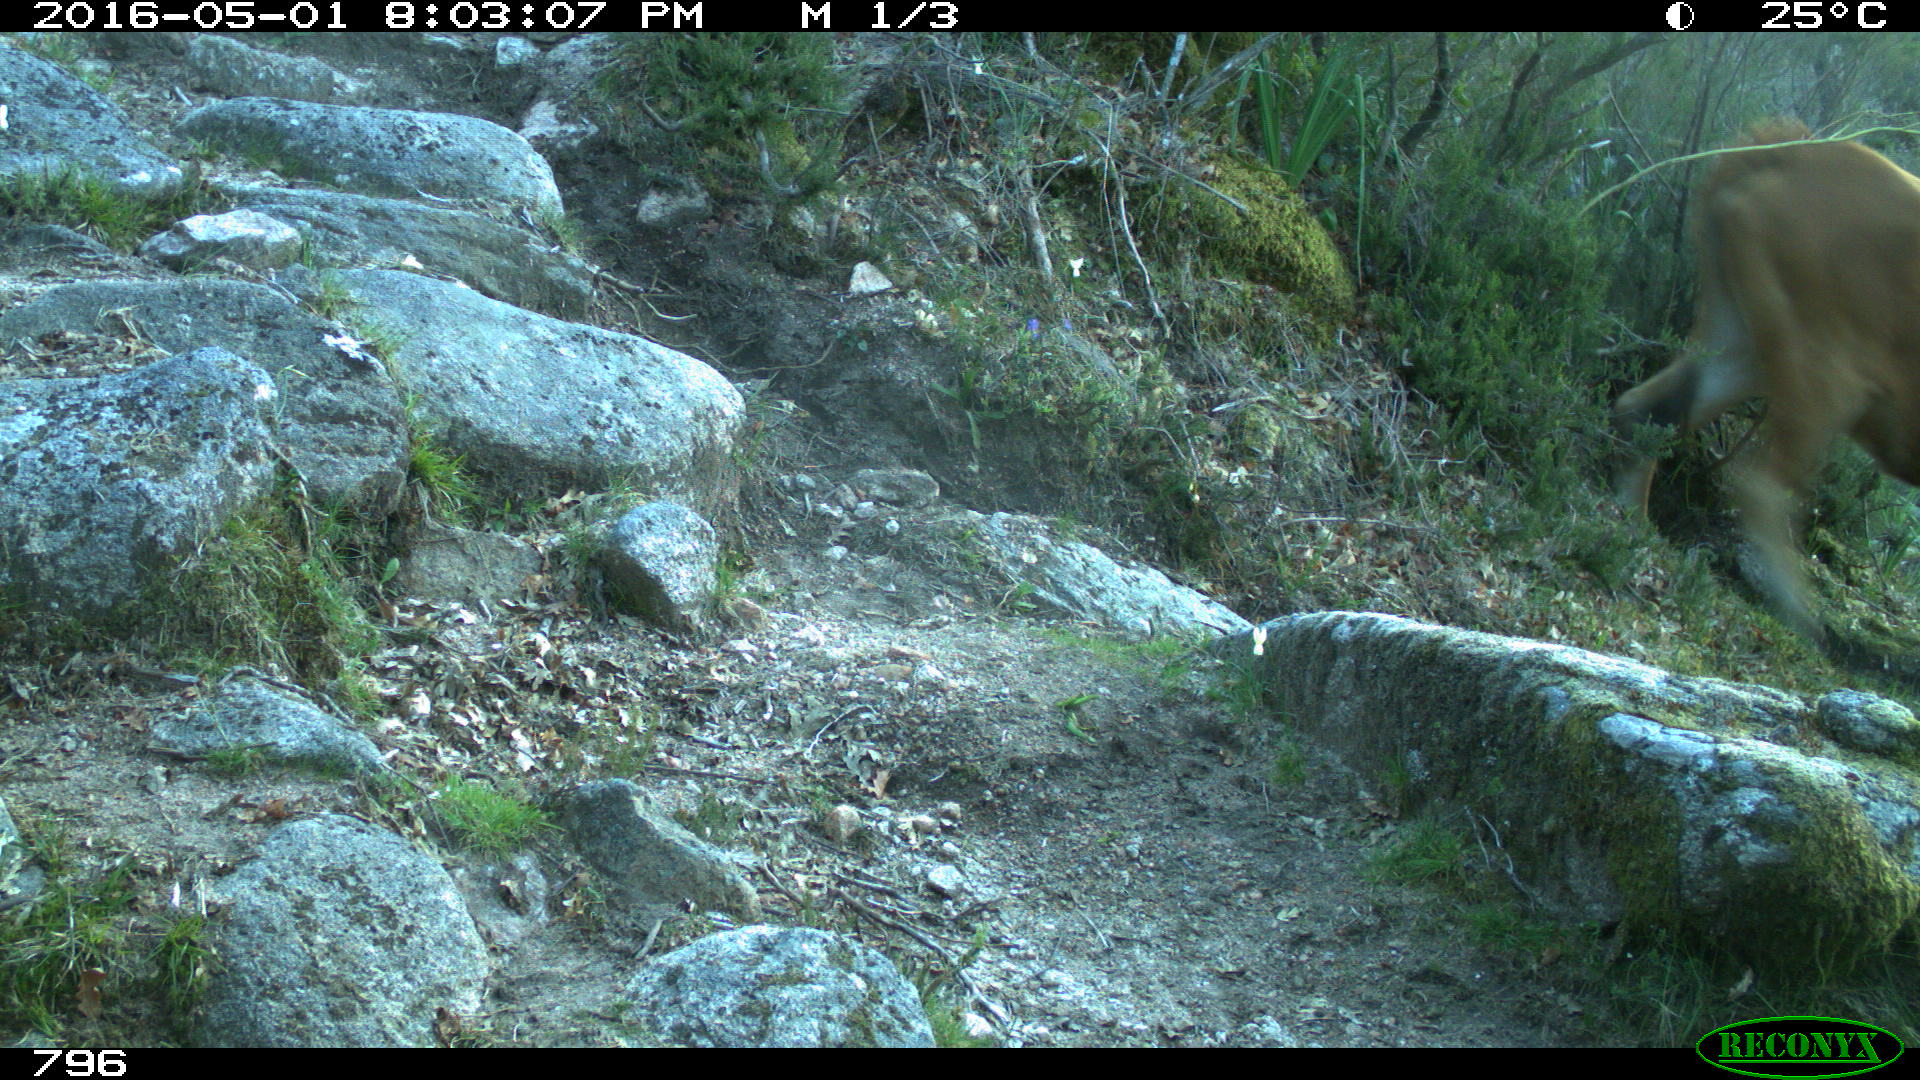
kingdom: Animalia
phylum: Chordata
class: Mammalia
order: Artiodactyla
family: Bovidae
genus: Bos
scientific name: Bos taurus
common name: Domesticated cattle
